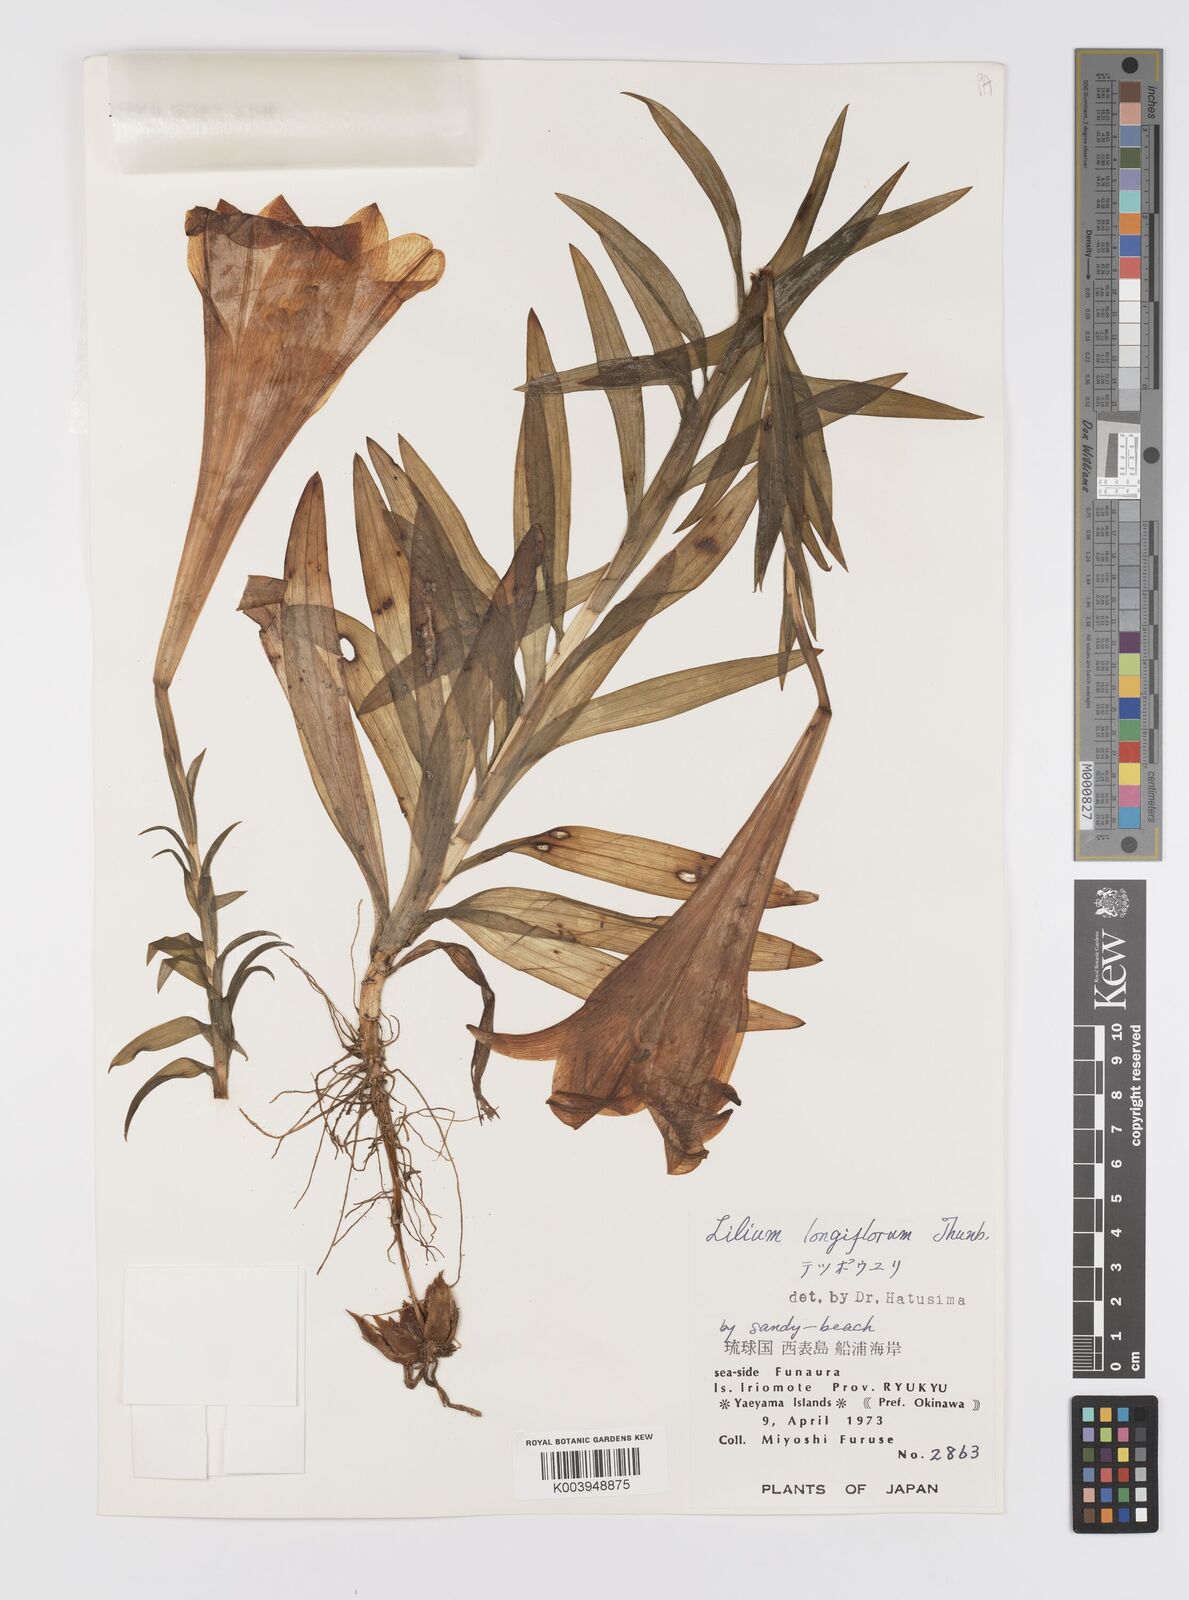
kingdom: Plantae
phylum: Tracheophyta
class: Liliopsida
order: Liliales
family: Liliaceae
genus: Lilium
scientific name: Lilium longiflorum
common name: Easter lily
